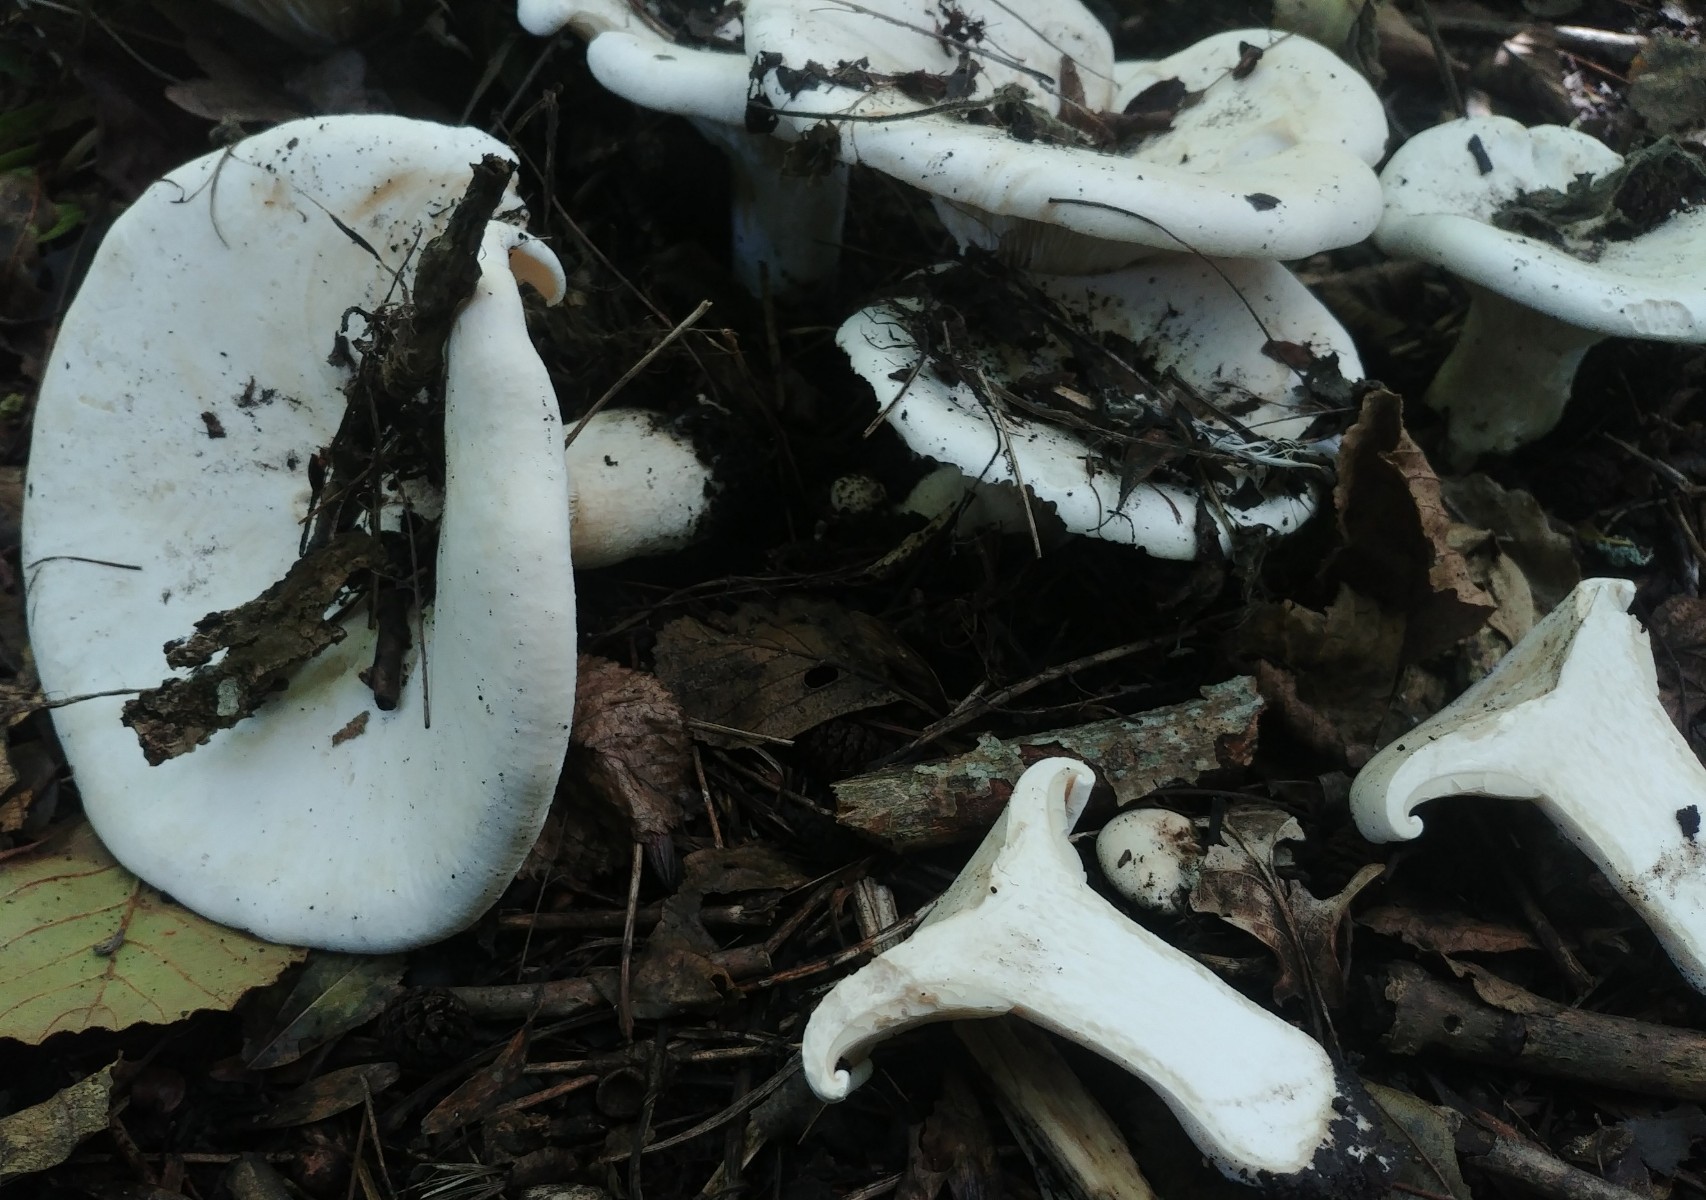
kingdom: Fungi
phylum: Basidiomycota
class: Agaricomycetes
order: Agaricales
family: Tricholomataceae
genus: Aspropaxillus
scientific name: Aspropaxillus giganteus
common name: kæmpe-tragtridderhat
